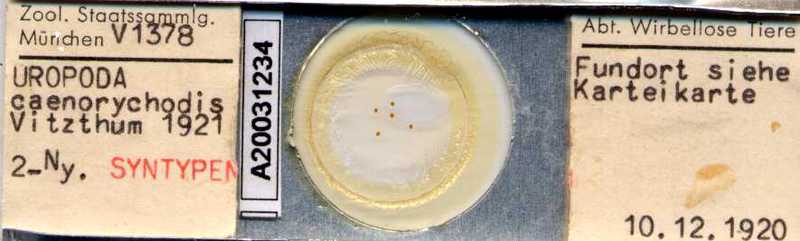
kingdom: Animalia
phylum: Arthropoda
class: Arachnida
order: Mesostigmata
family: Uropodidae
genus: Uropoda
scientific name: Uropoda
